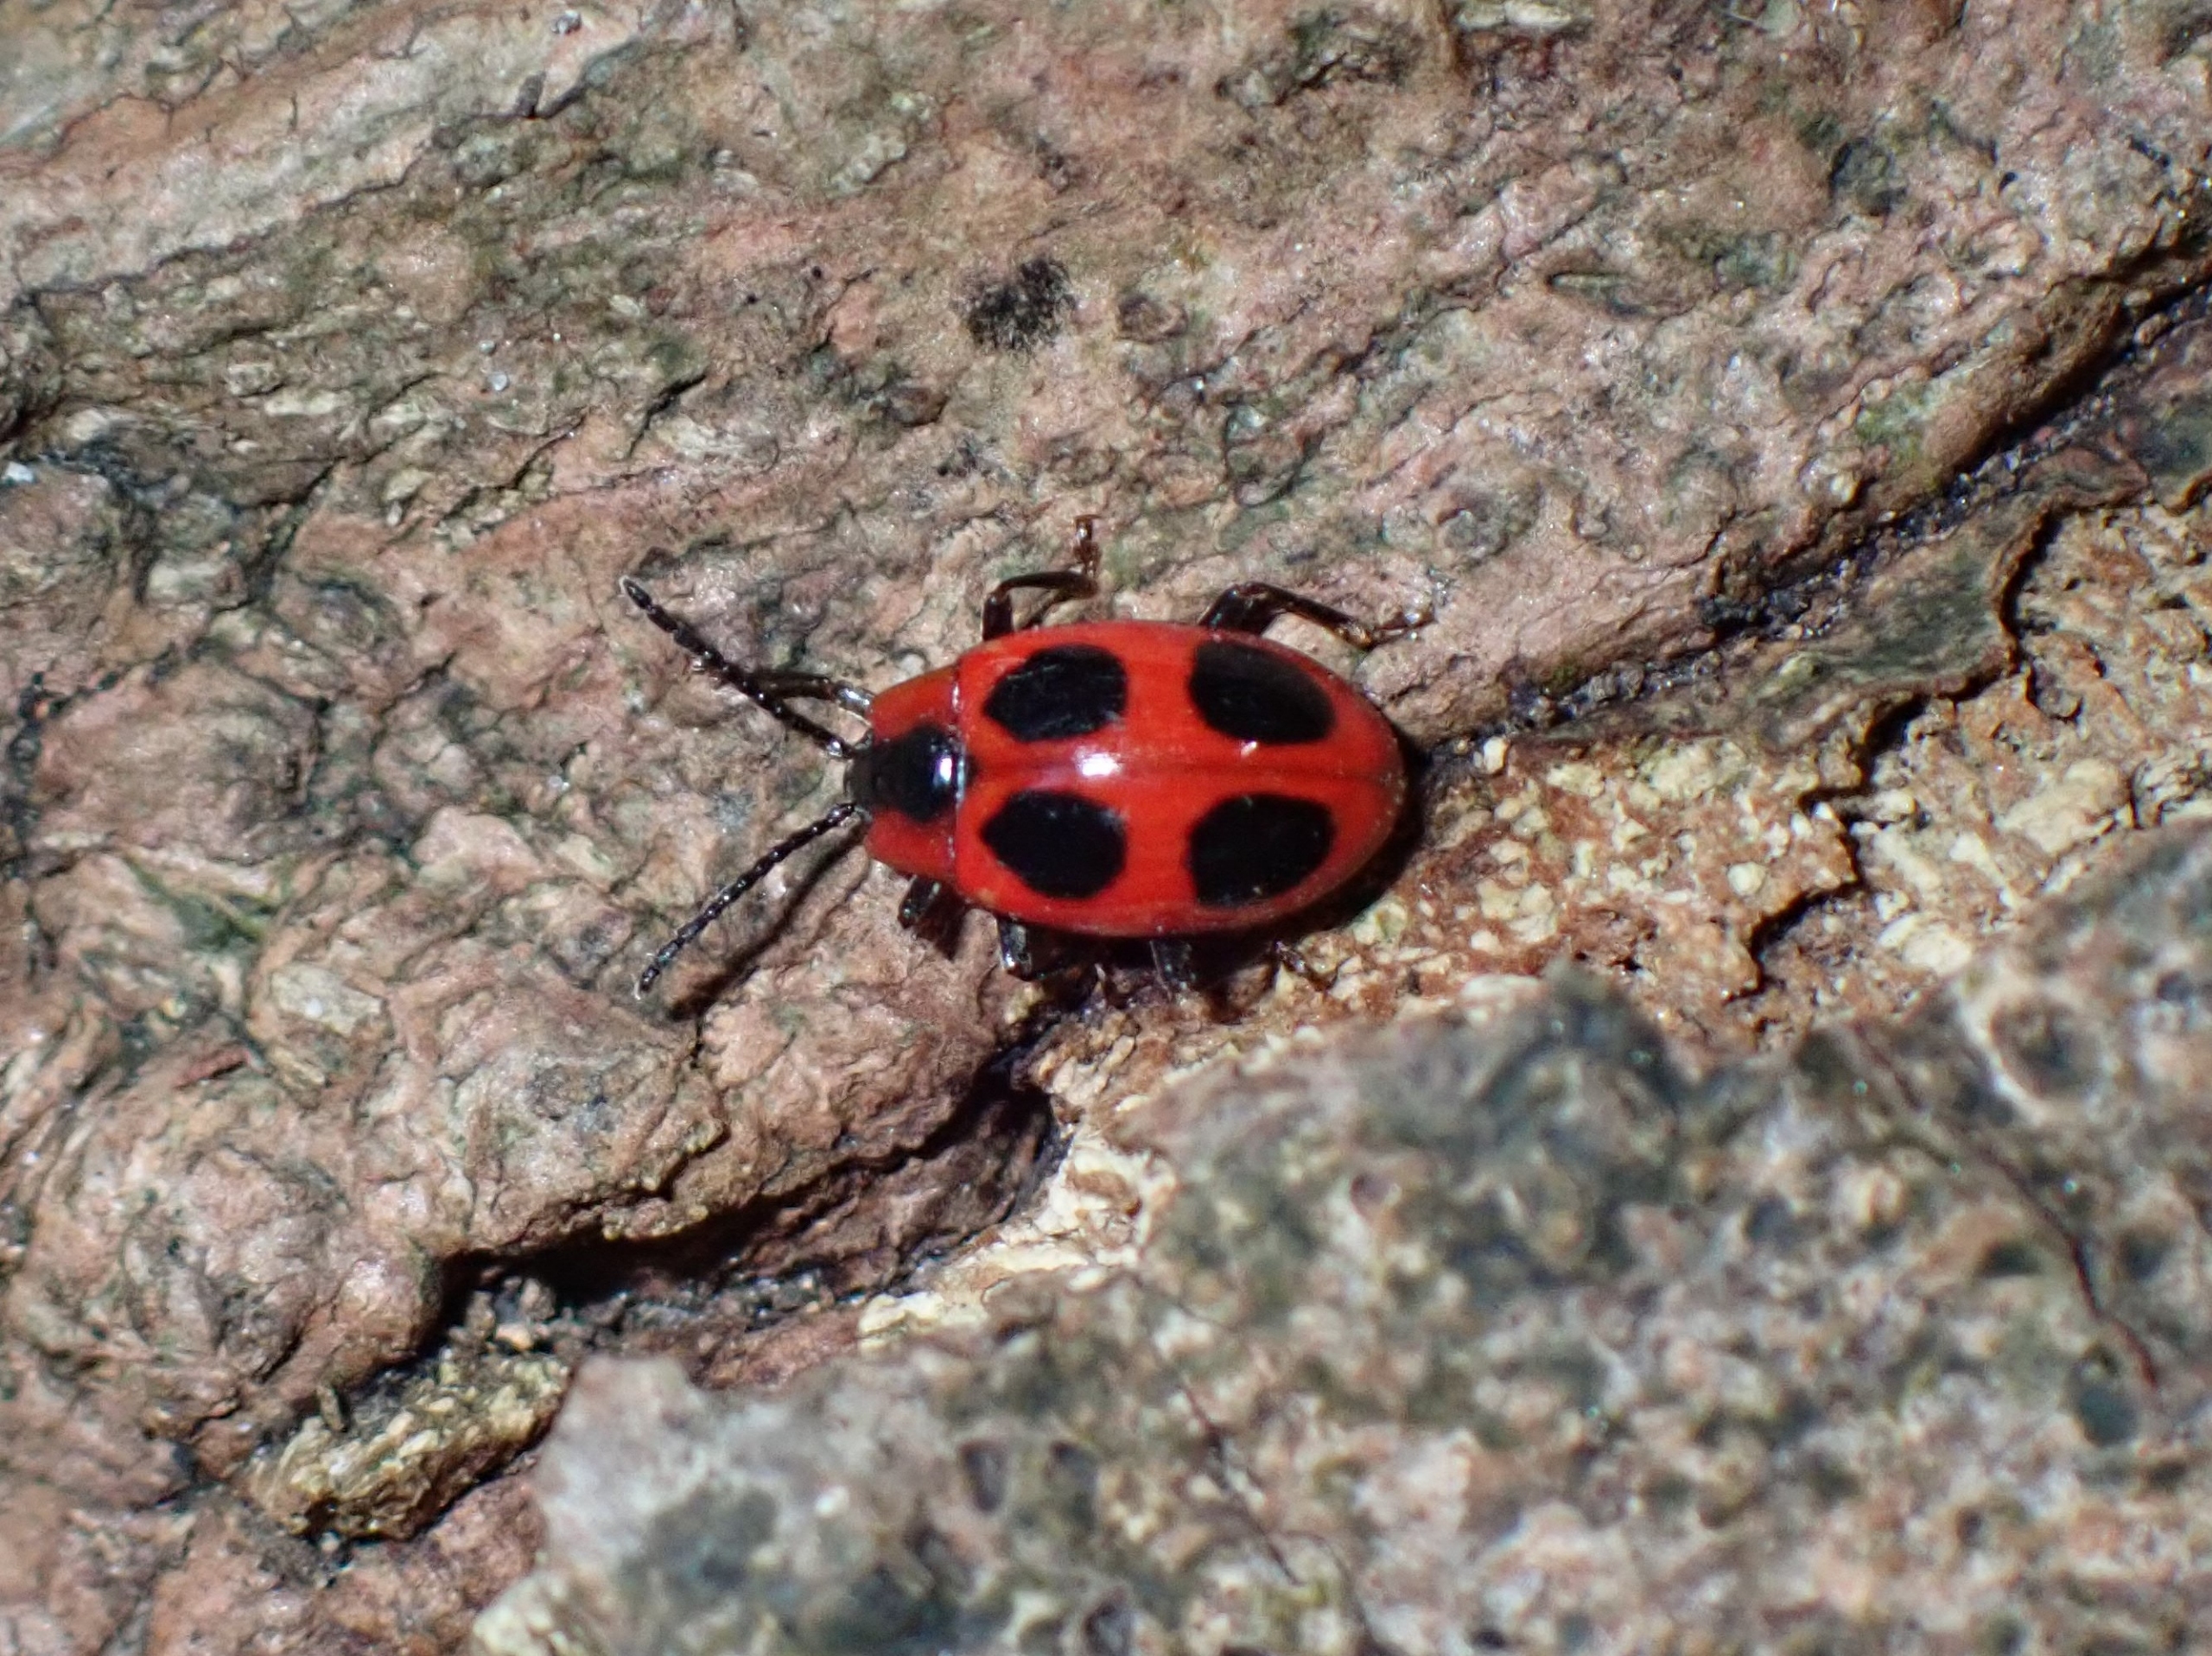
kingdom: Animalia
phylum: Arthropoda
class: Insecta
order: Coleoptera
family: Endomychidae
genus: Endomychus
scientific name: Endomychus coccineus
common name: Skarlagensvampehøne
